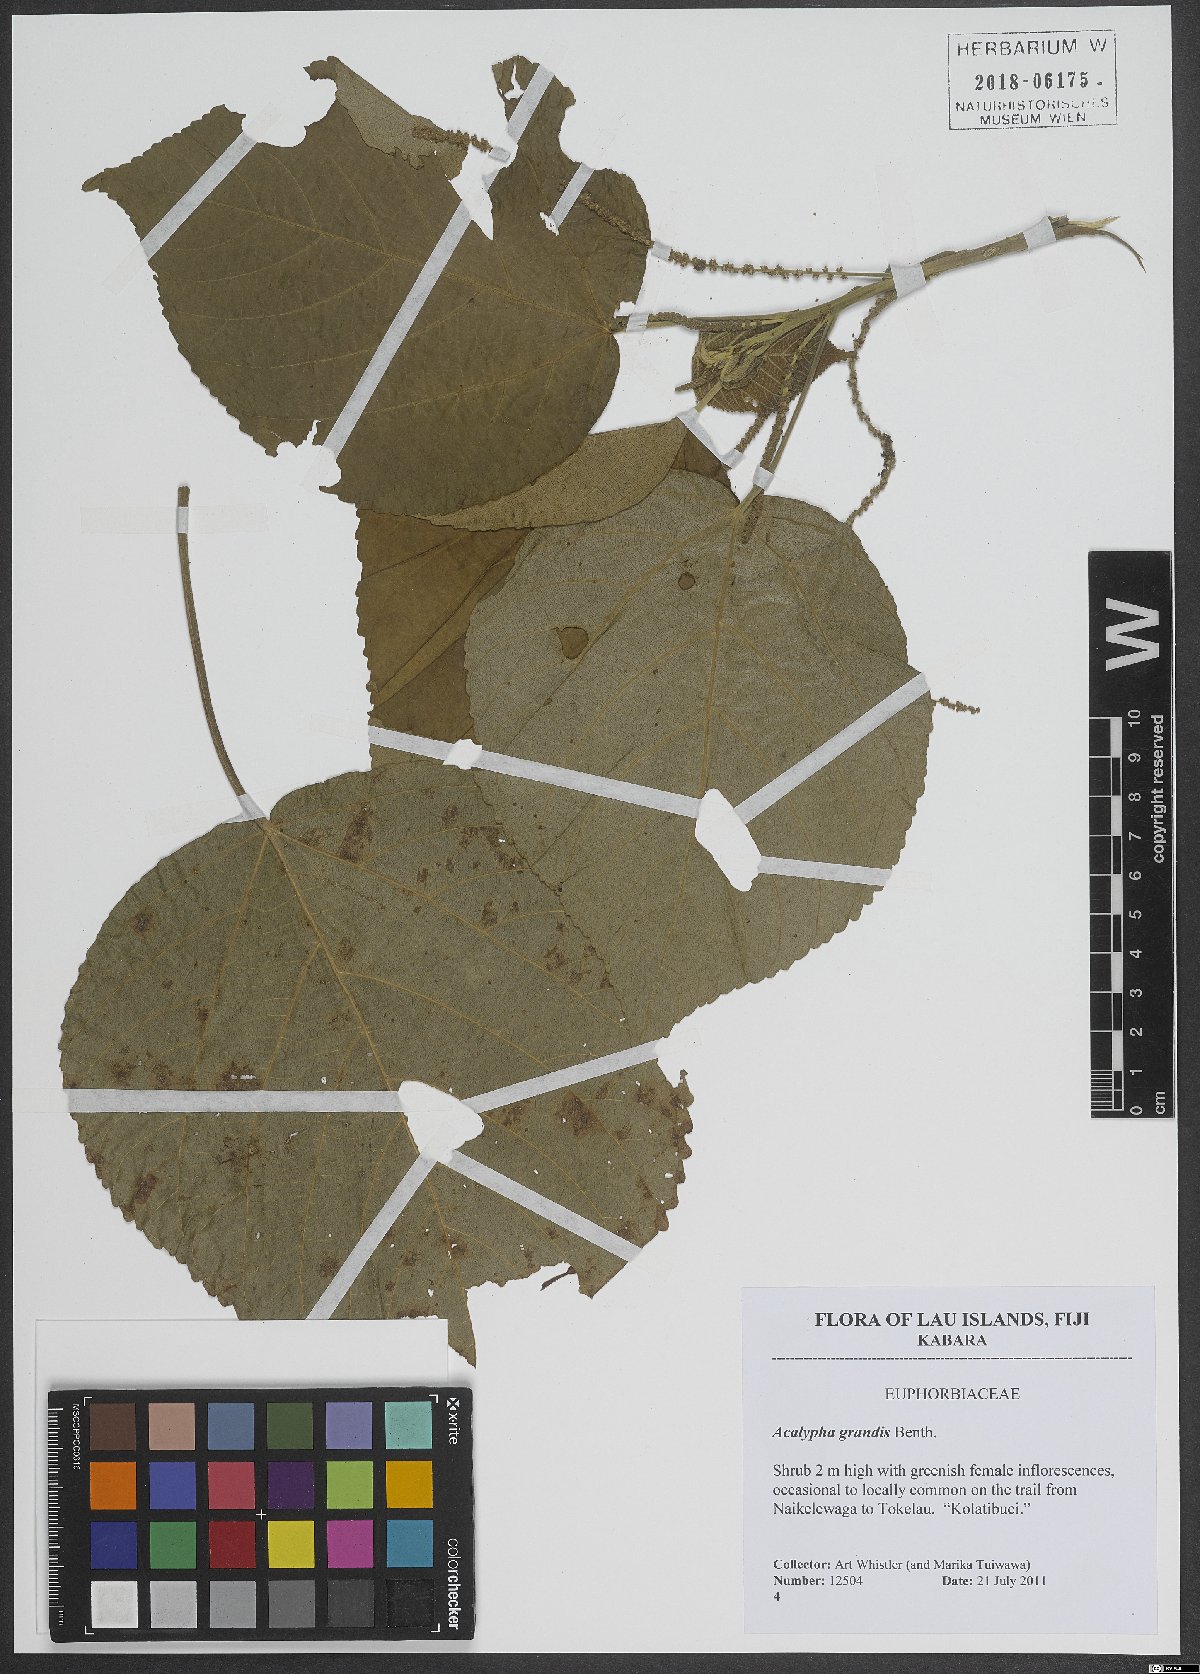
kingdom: Plantae
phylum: Tracheophyta
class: Magnoliopsida
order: Malpighiales
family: Euphorbiaceae
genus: Acalypha
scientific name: Acalypha grandis
